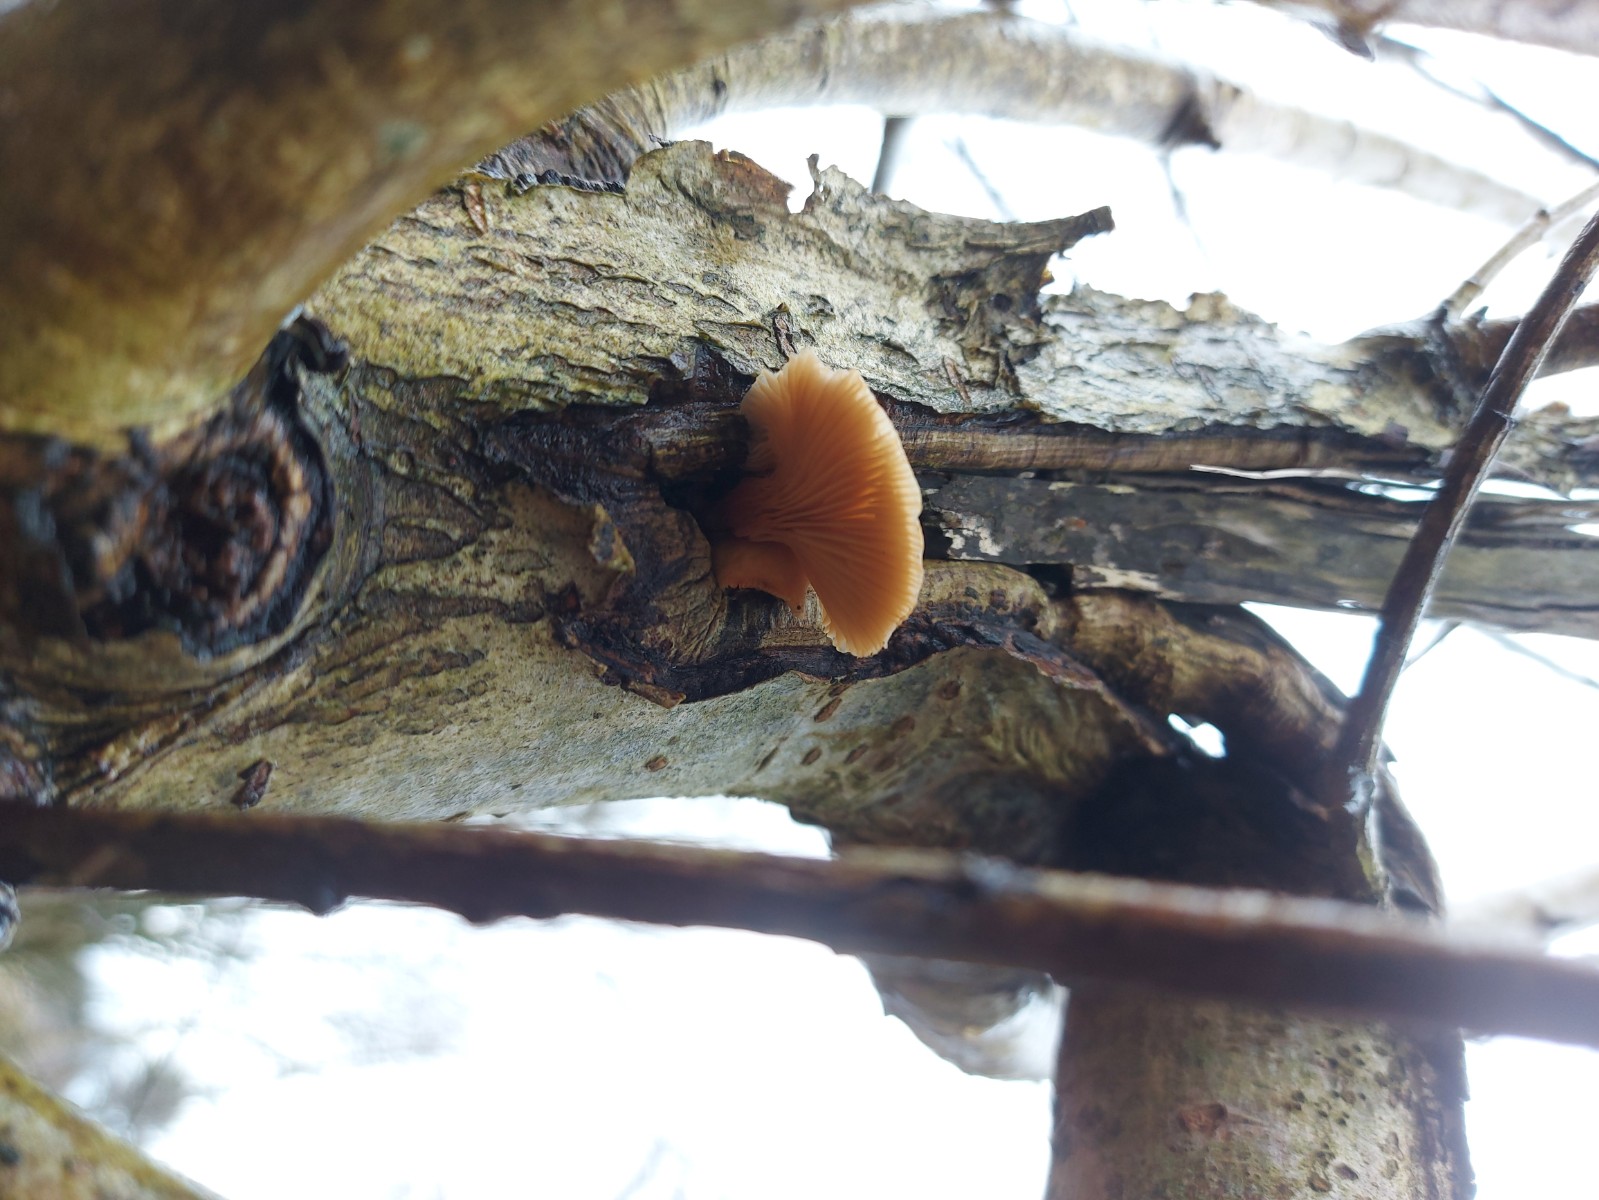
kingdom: Fungi
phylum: Basidiomycota
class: Agaricomycetes
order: Agaricales
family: Pleurotaceae
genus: Pleurotus
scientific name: Pleurotus ostreatus
